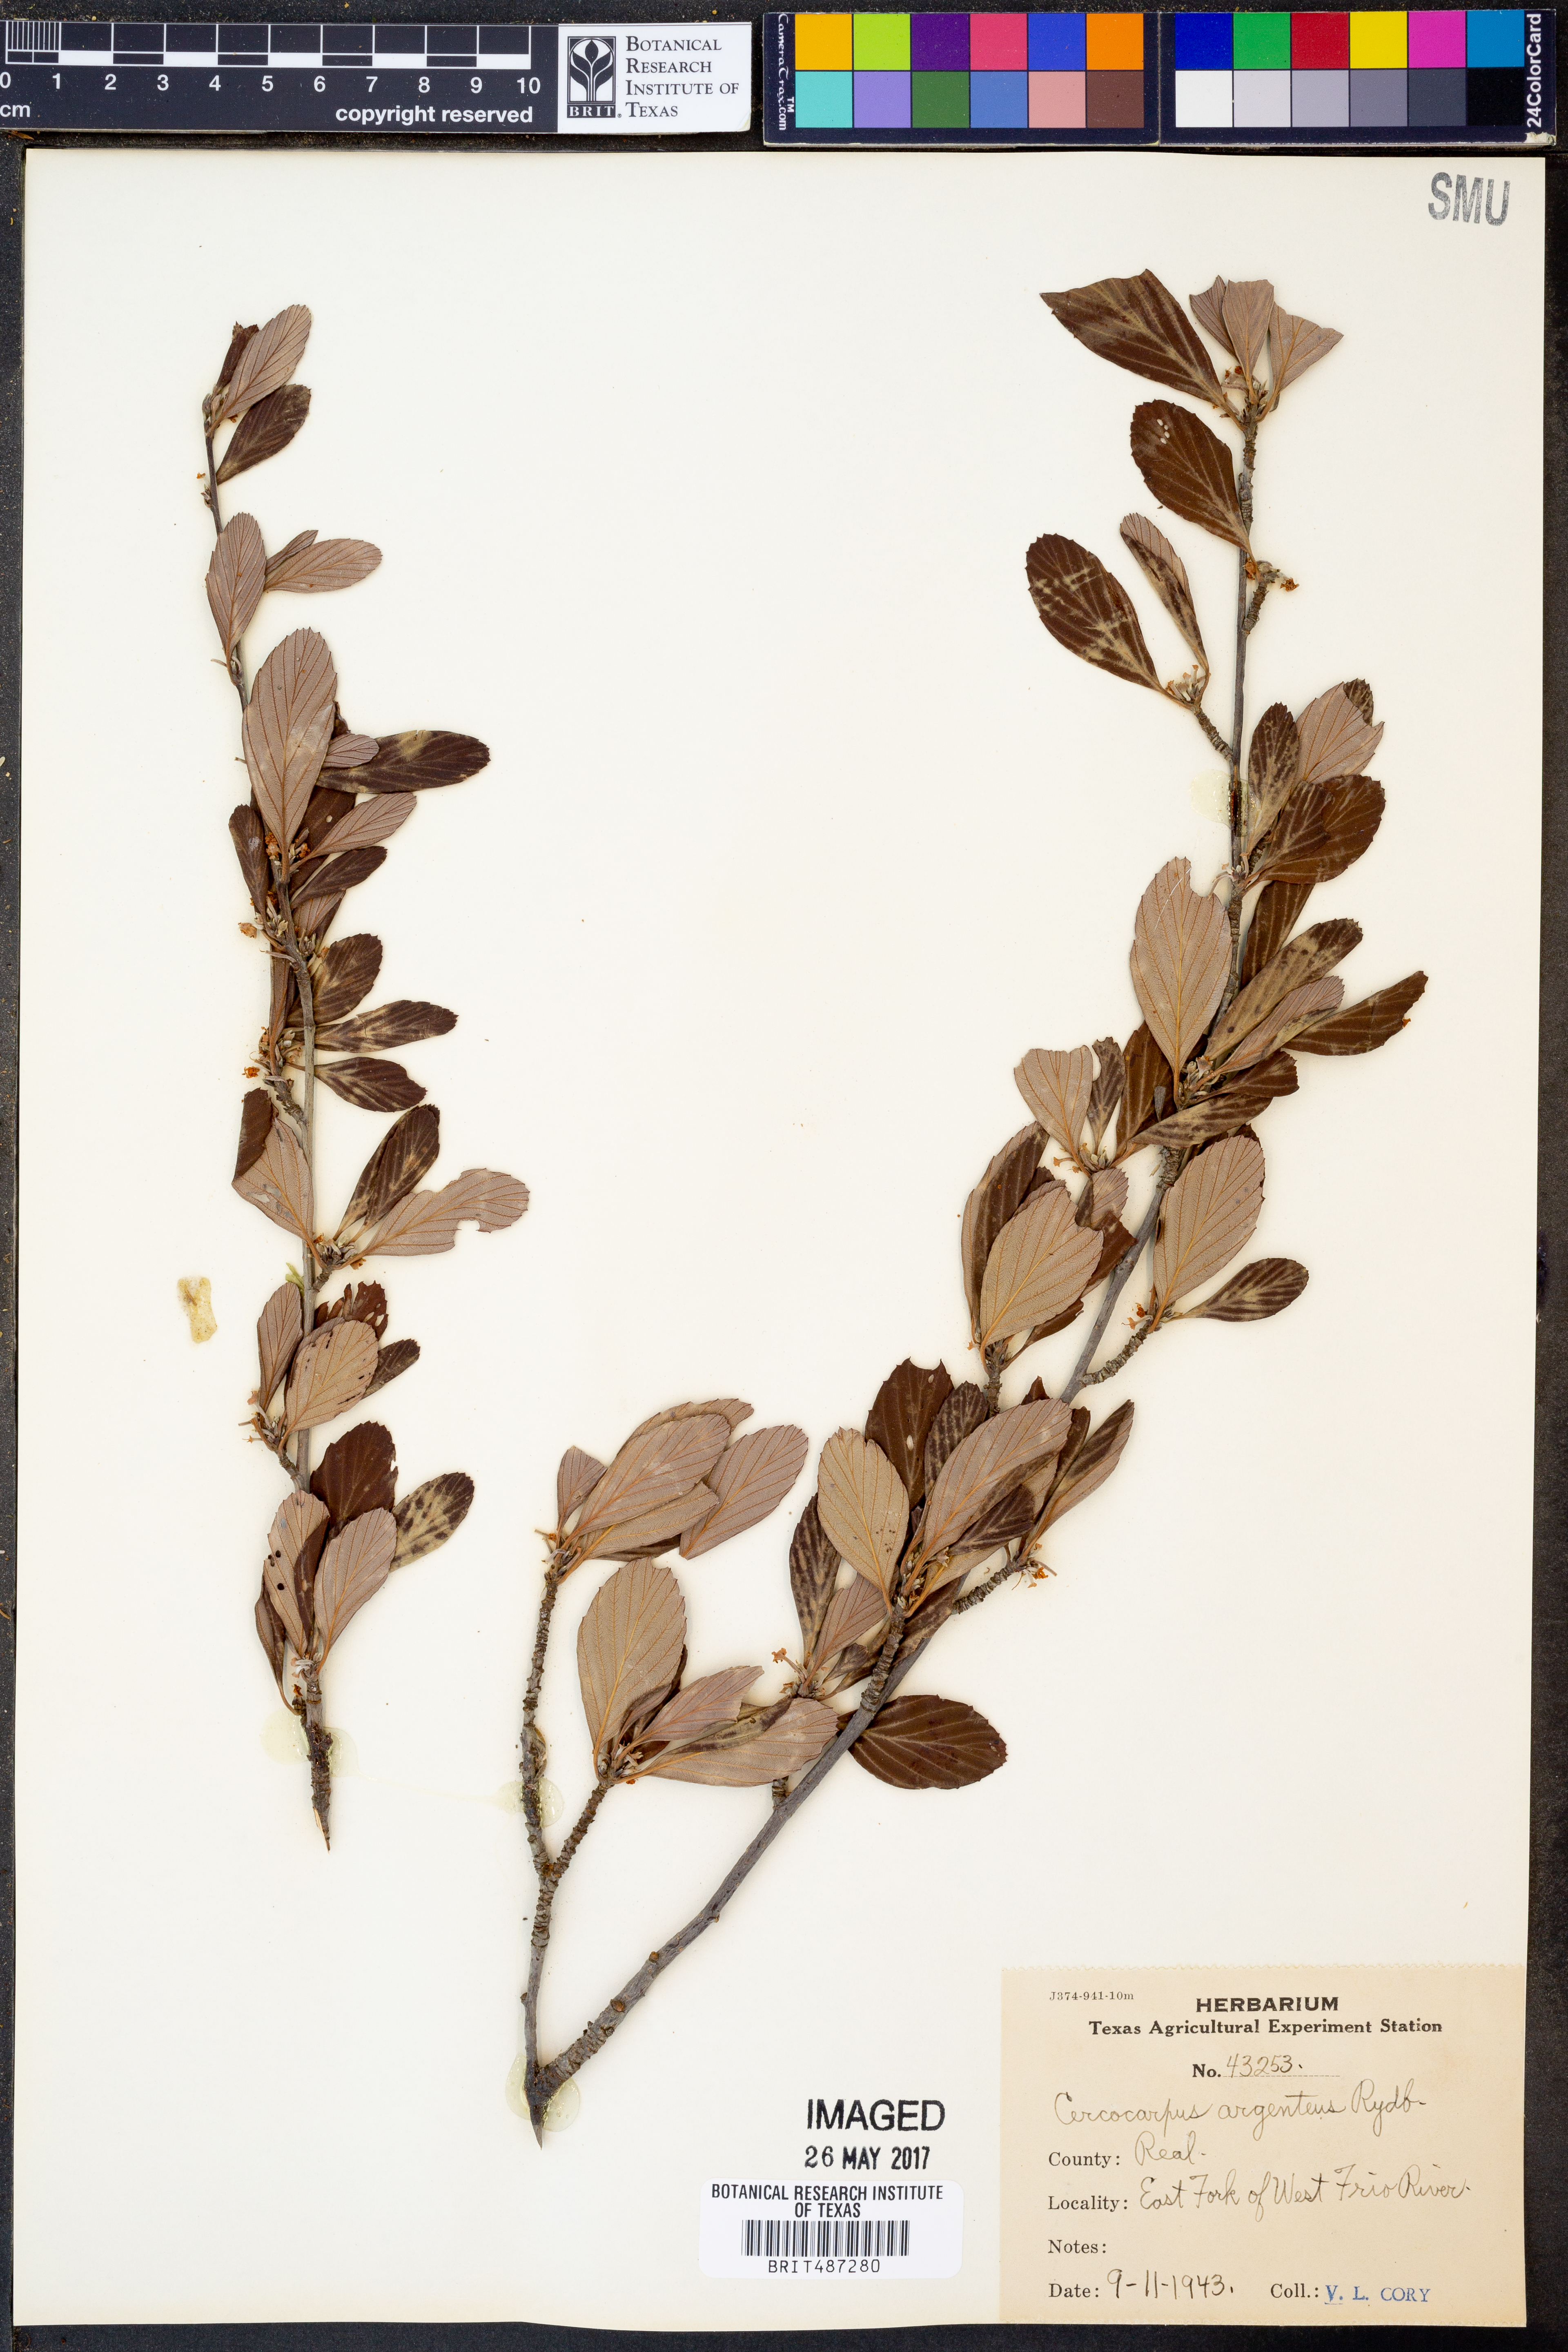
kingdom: Plantae
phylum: Tracheophyta
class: Magnoliopsida
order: Rosales
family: Rosaceae
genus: Cercocarpus
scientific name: Cercocarpus intricatus
